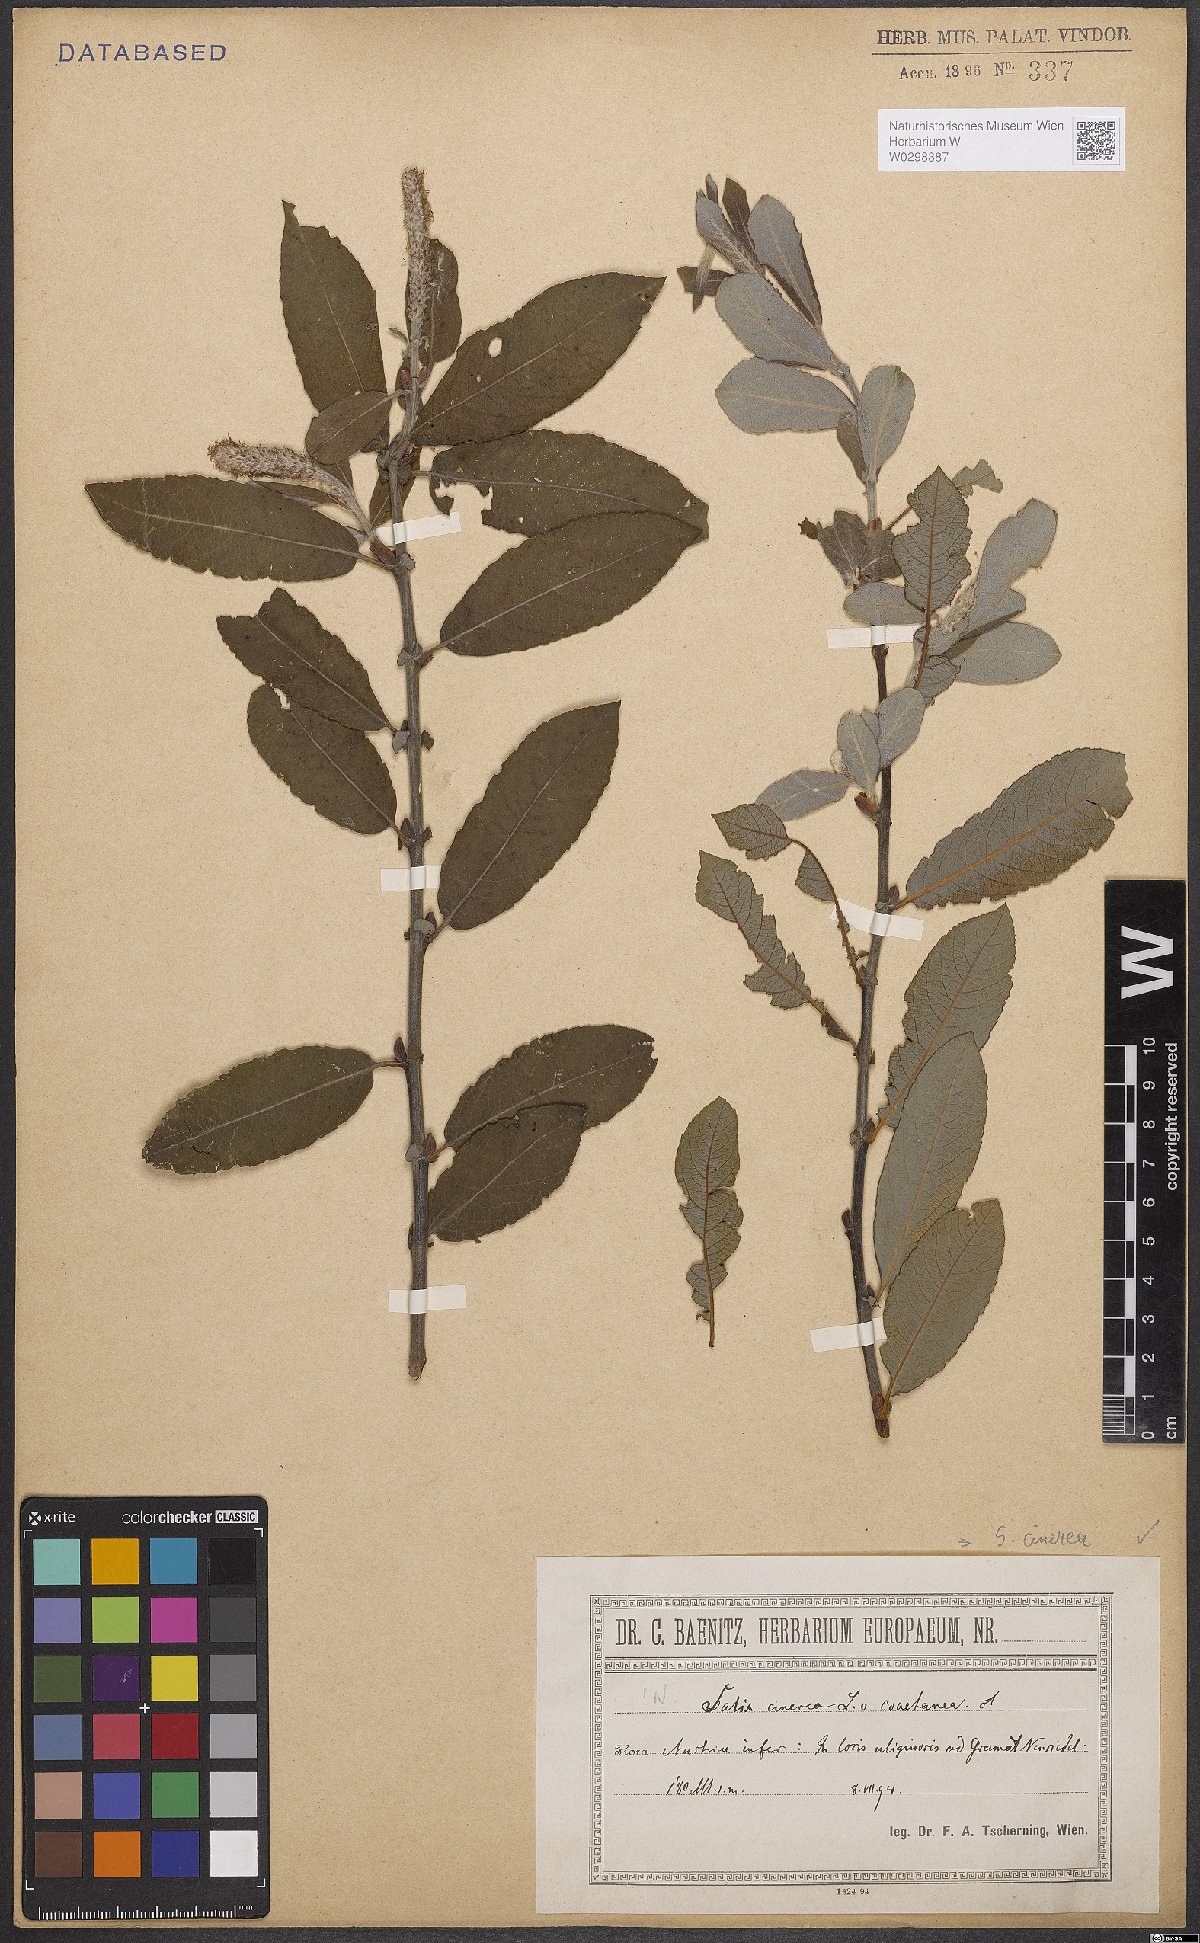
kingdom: Plantae
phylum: Tracheophyta
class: Magnoliopsida
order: Malpighiales
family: Salicaceae
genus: Salix
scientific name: Salix cinerea
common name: Common sallow
